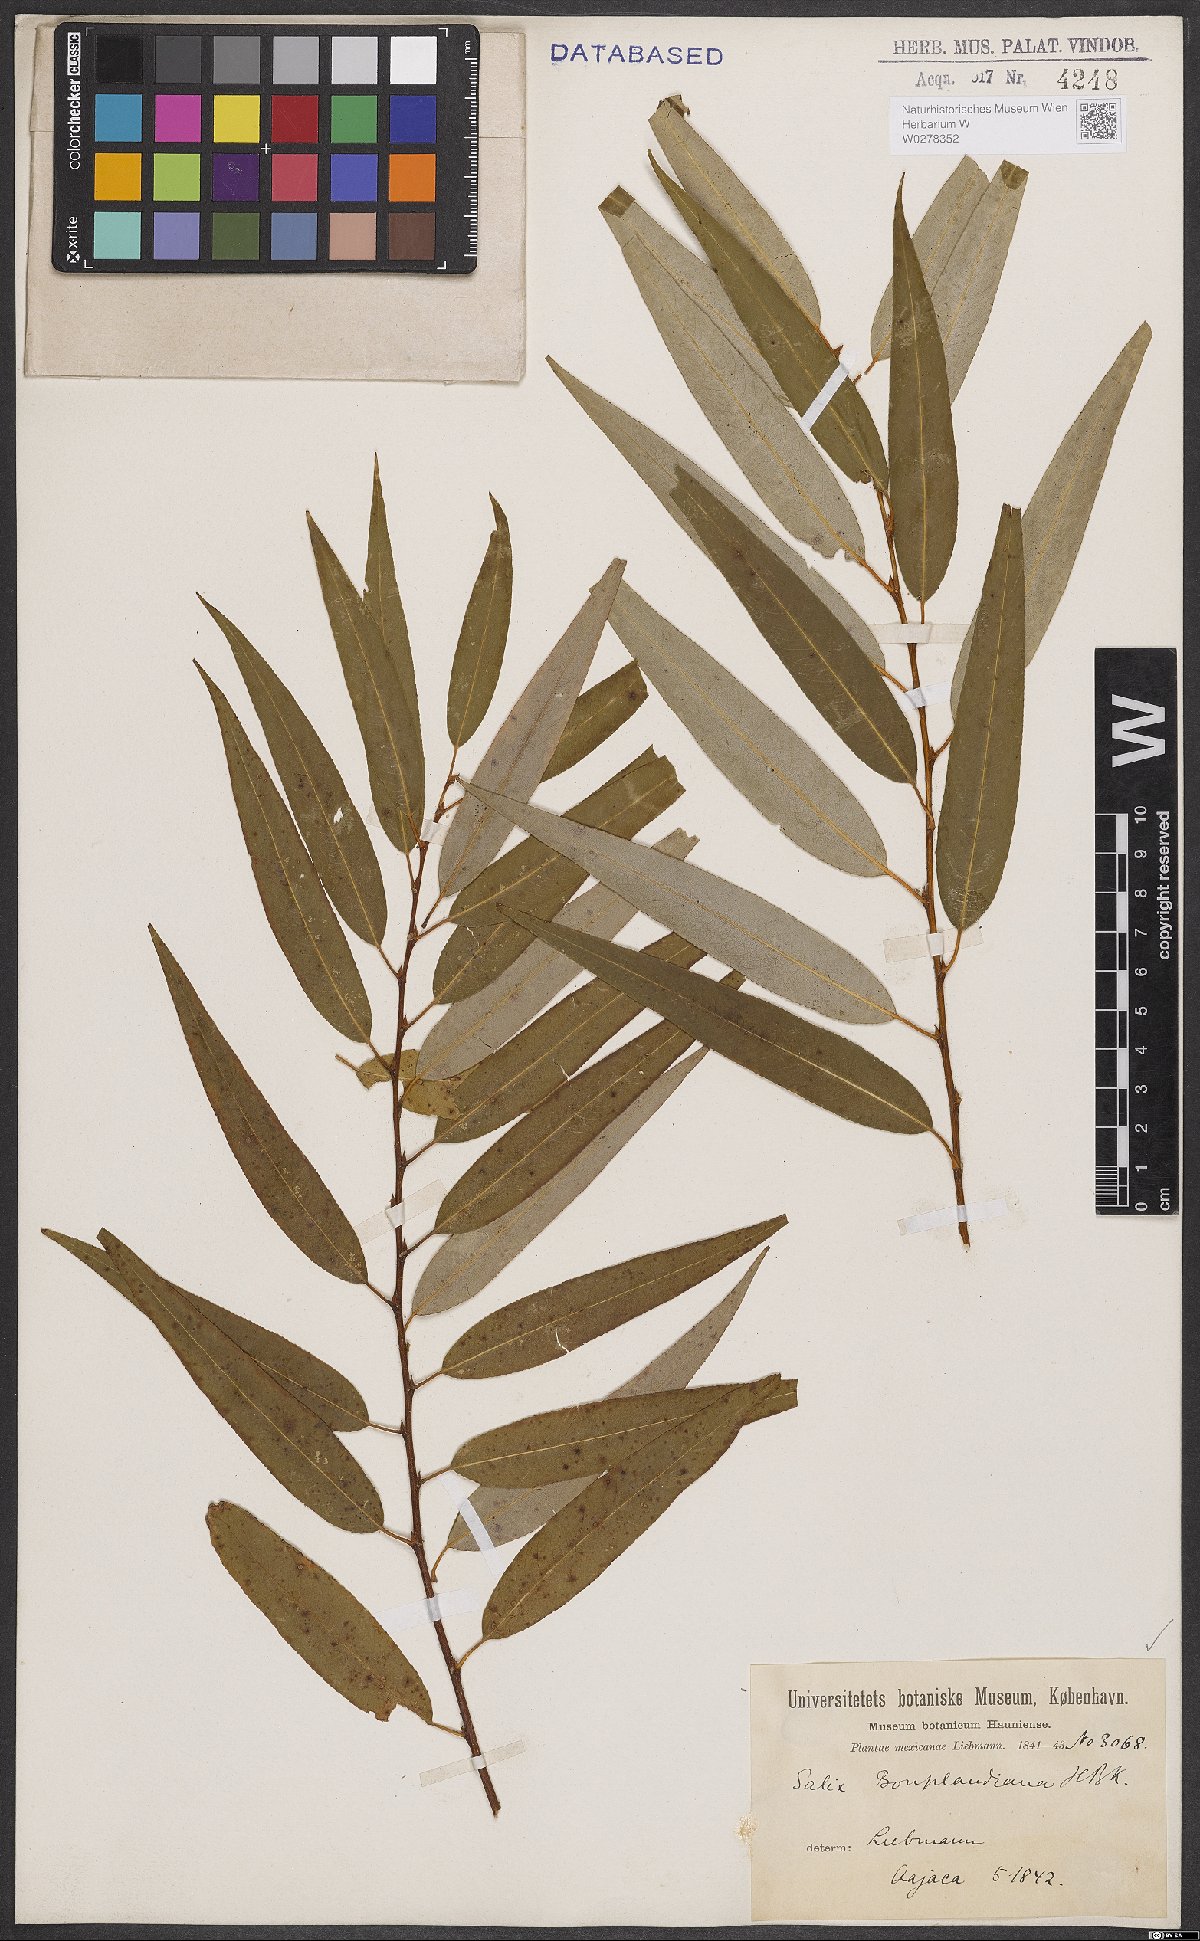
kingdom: Plantae
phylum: Tracheophyta
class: Magnoliopsida
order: Malpighiales
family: Salicaceae
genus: Salix
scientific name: Salix bonplandiana
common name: Bonpland’s willow
